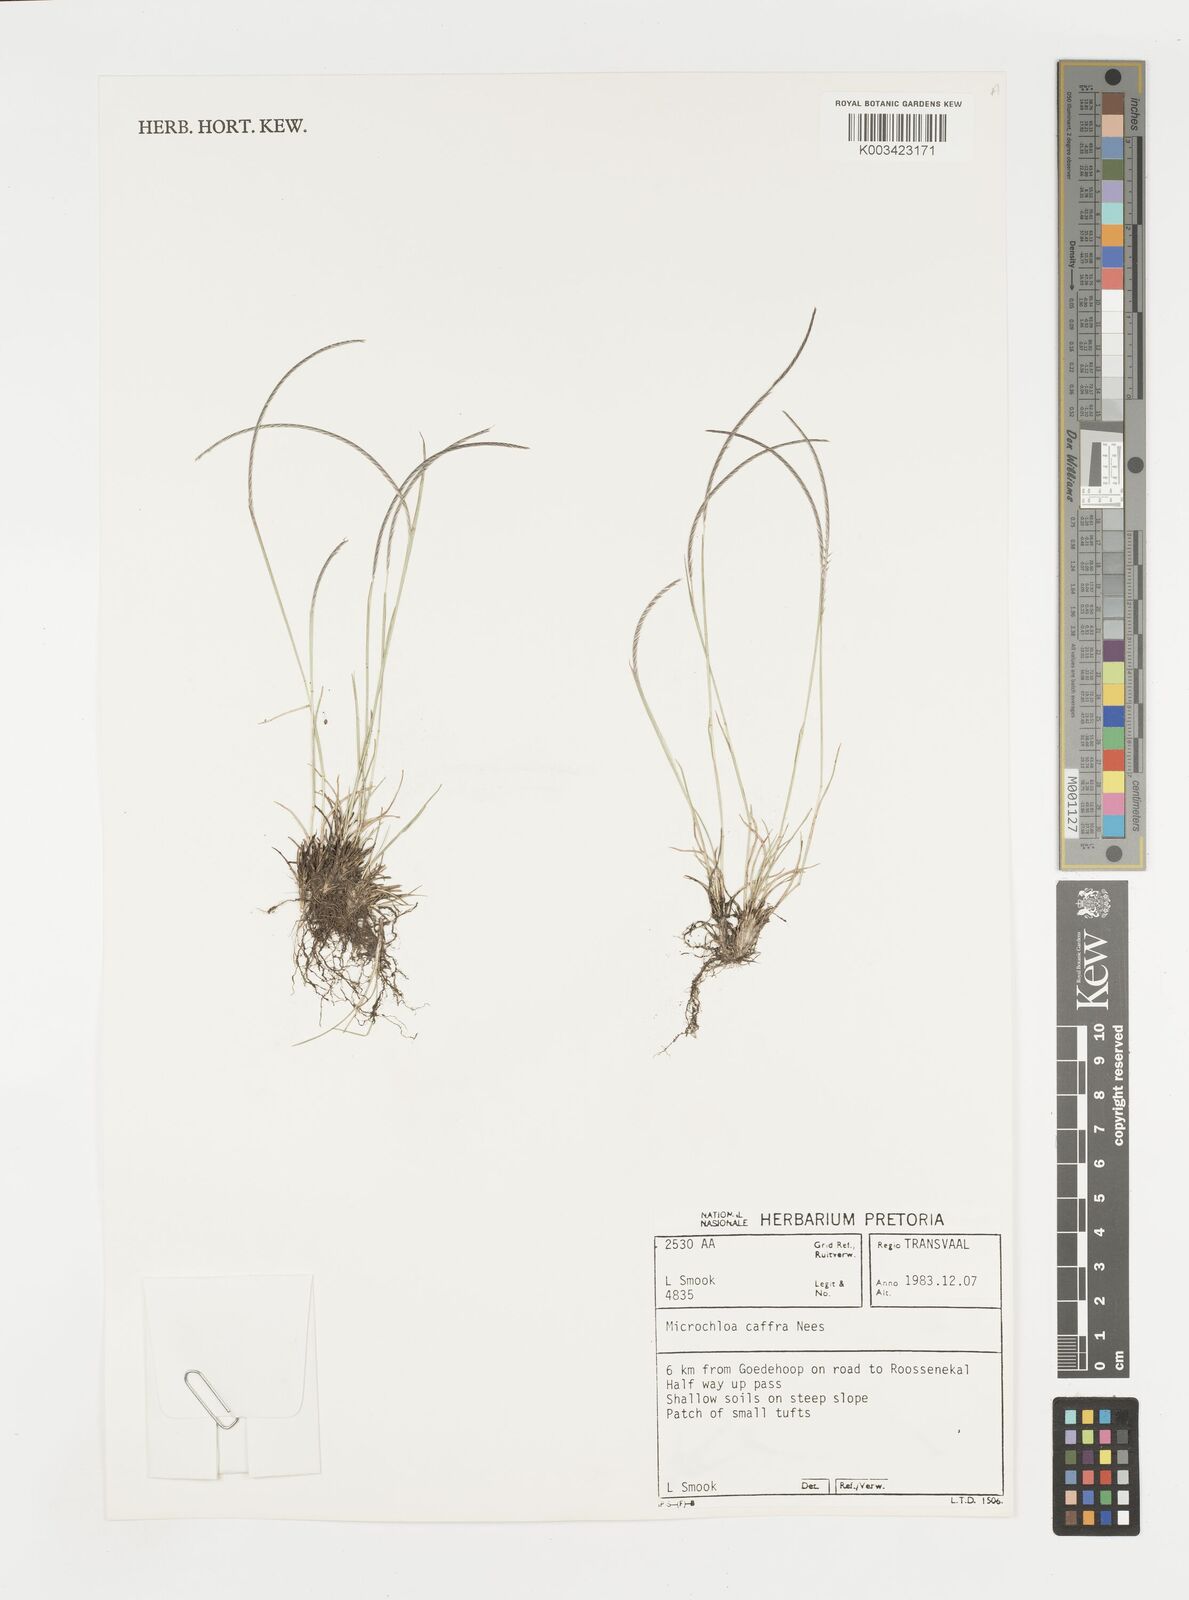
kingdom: Plantae
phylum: Tracheophyta
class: Liliopsida
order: Poales
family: Poaceae
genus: Microchloa
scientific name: Microchloa caffra
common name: Pincushion grass
